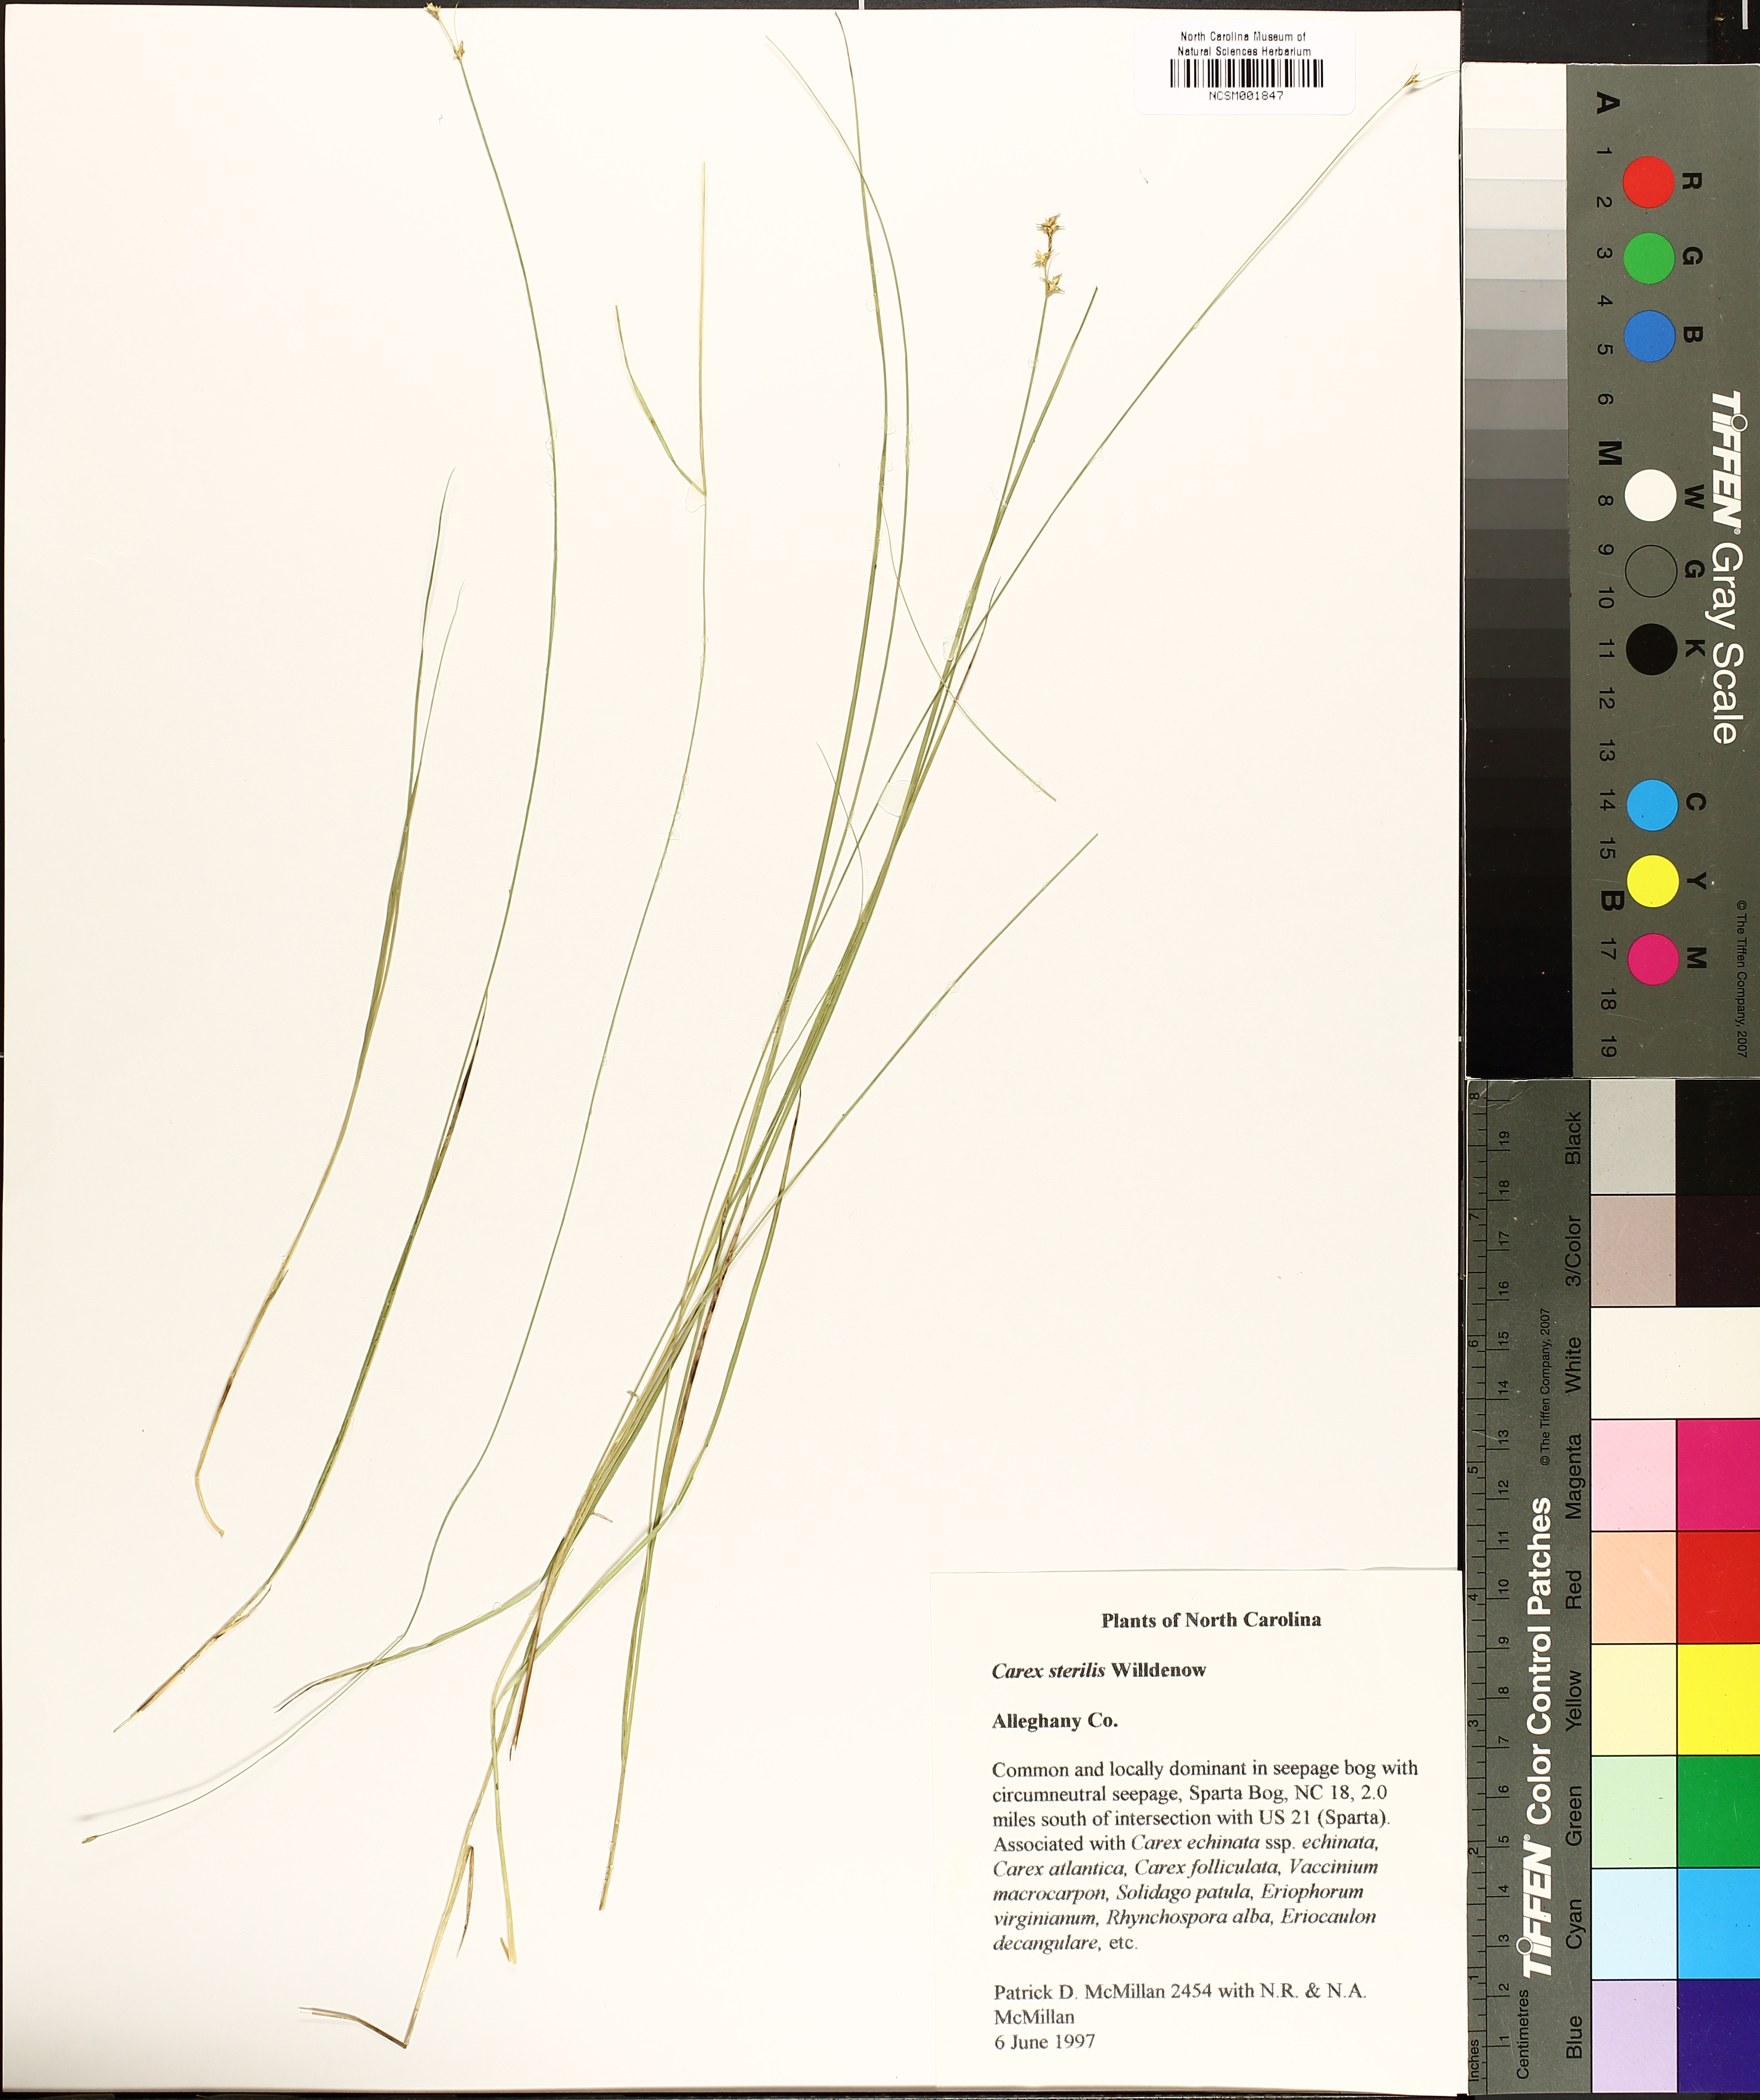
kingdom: Plantae
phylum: Tracheophyta
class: Liliopsida
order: Poales
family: Cyperaceae
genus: Carex
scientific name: Carex sterilis
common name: Dioecious sedge
